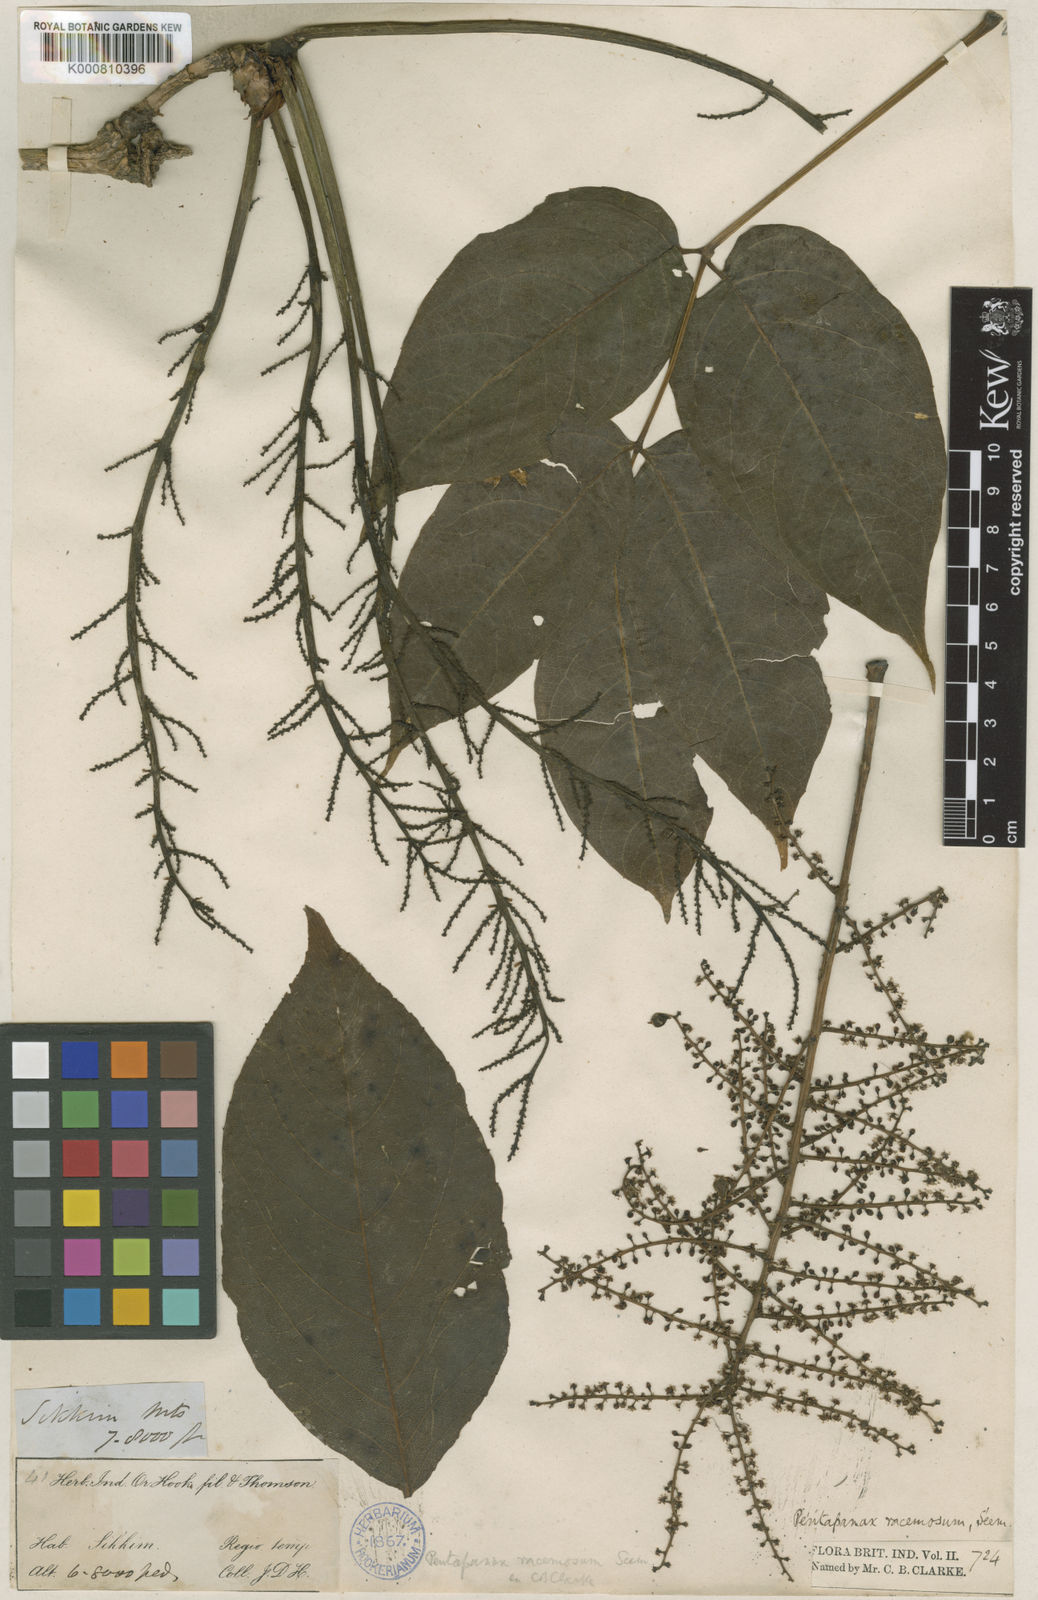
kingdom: Plantae
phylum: Tracheophyta
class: Magnoliopsida
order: Apiales
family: Araliaceae
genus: Aralia
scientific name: Aralia racemosa
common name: American-spikenard
